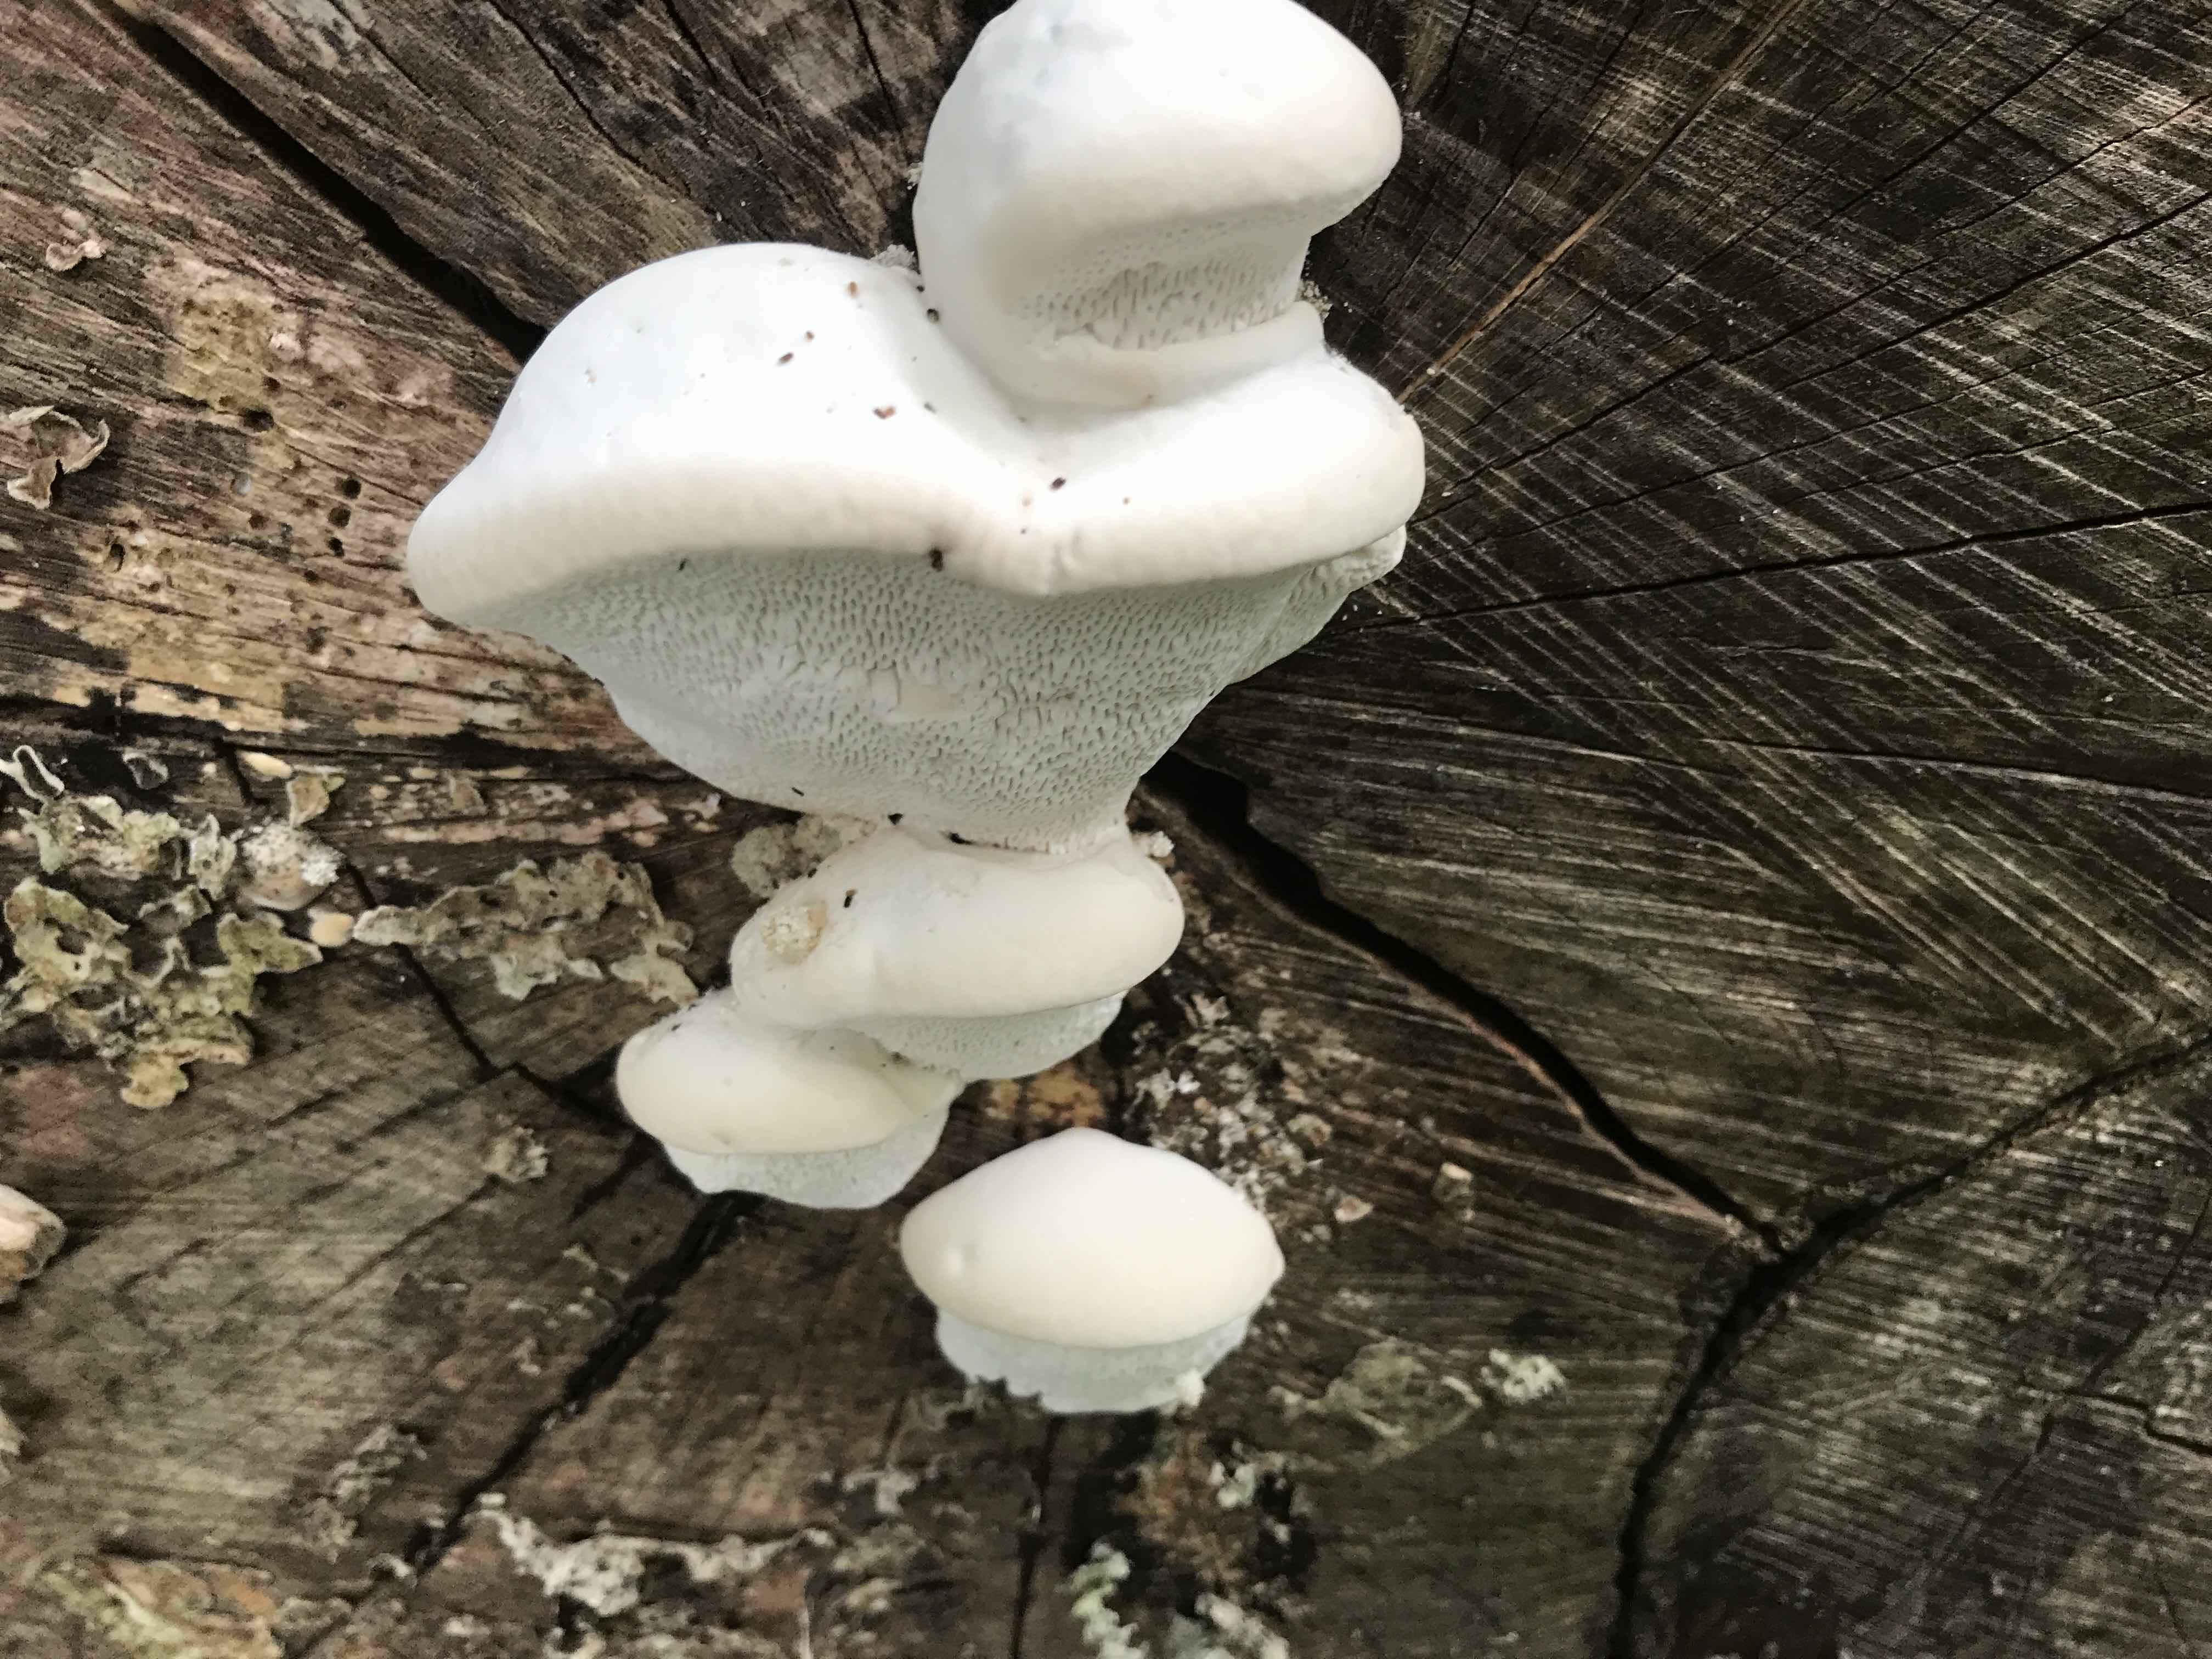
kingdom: Fungi
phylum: Basidiomycota
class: Agaricomycetes
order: Polyporales
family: Polyporaceae
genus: Trametes
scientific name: Trametes gibbosa
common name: puklet læderporesvamp
